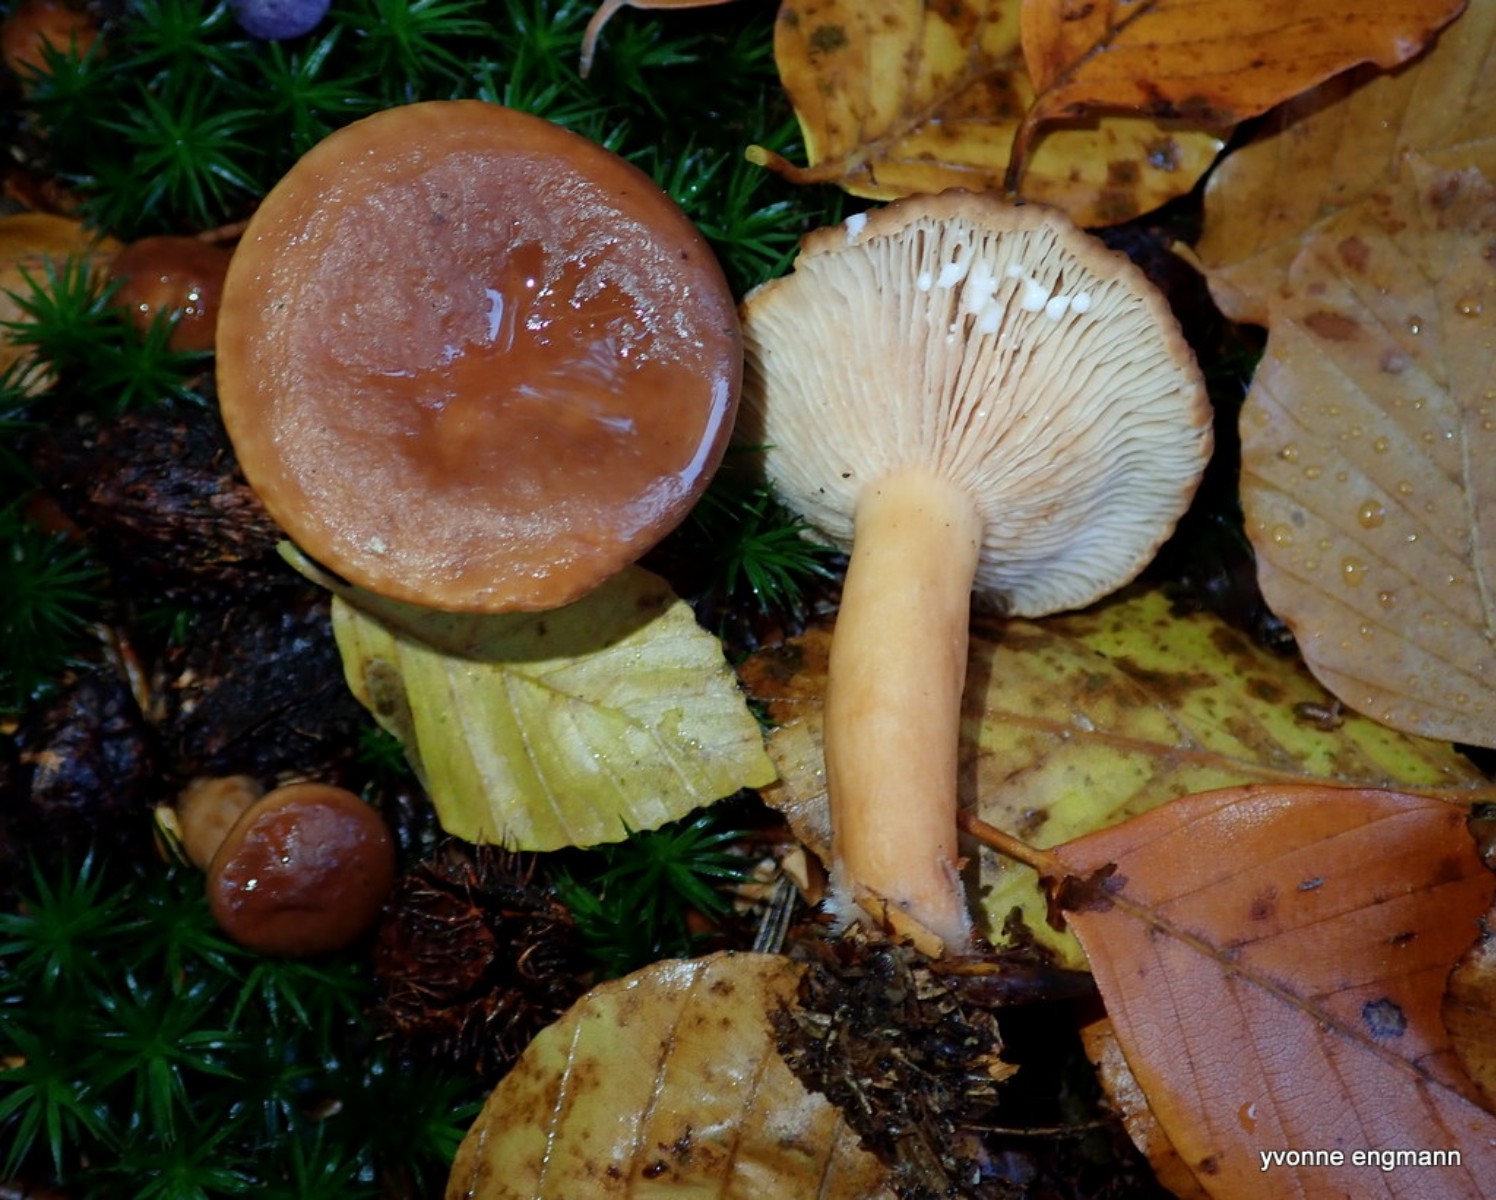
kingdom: Fungi
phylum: Basidiomycota
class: Agaricomycetes
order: Russulales
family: Russulaceae
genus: Lactarius
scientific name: Lactarius subdulcis
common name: sødlig mælkehat
